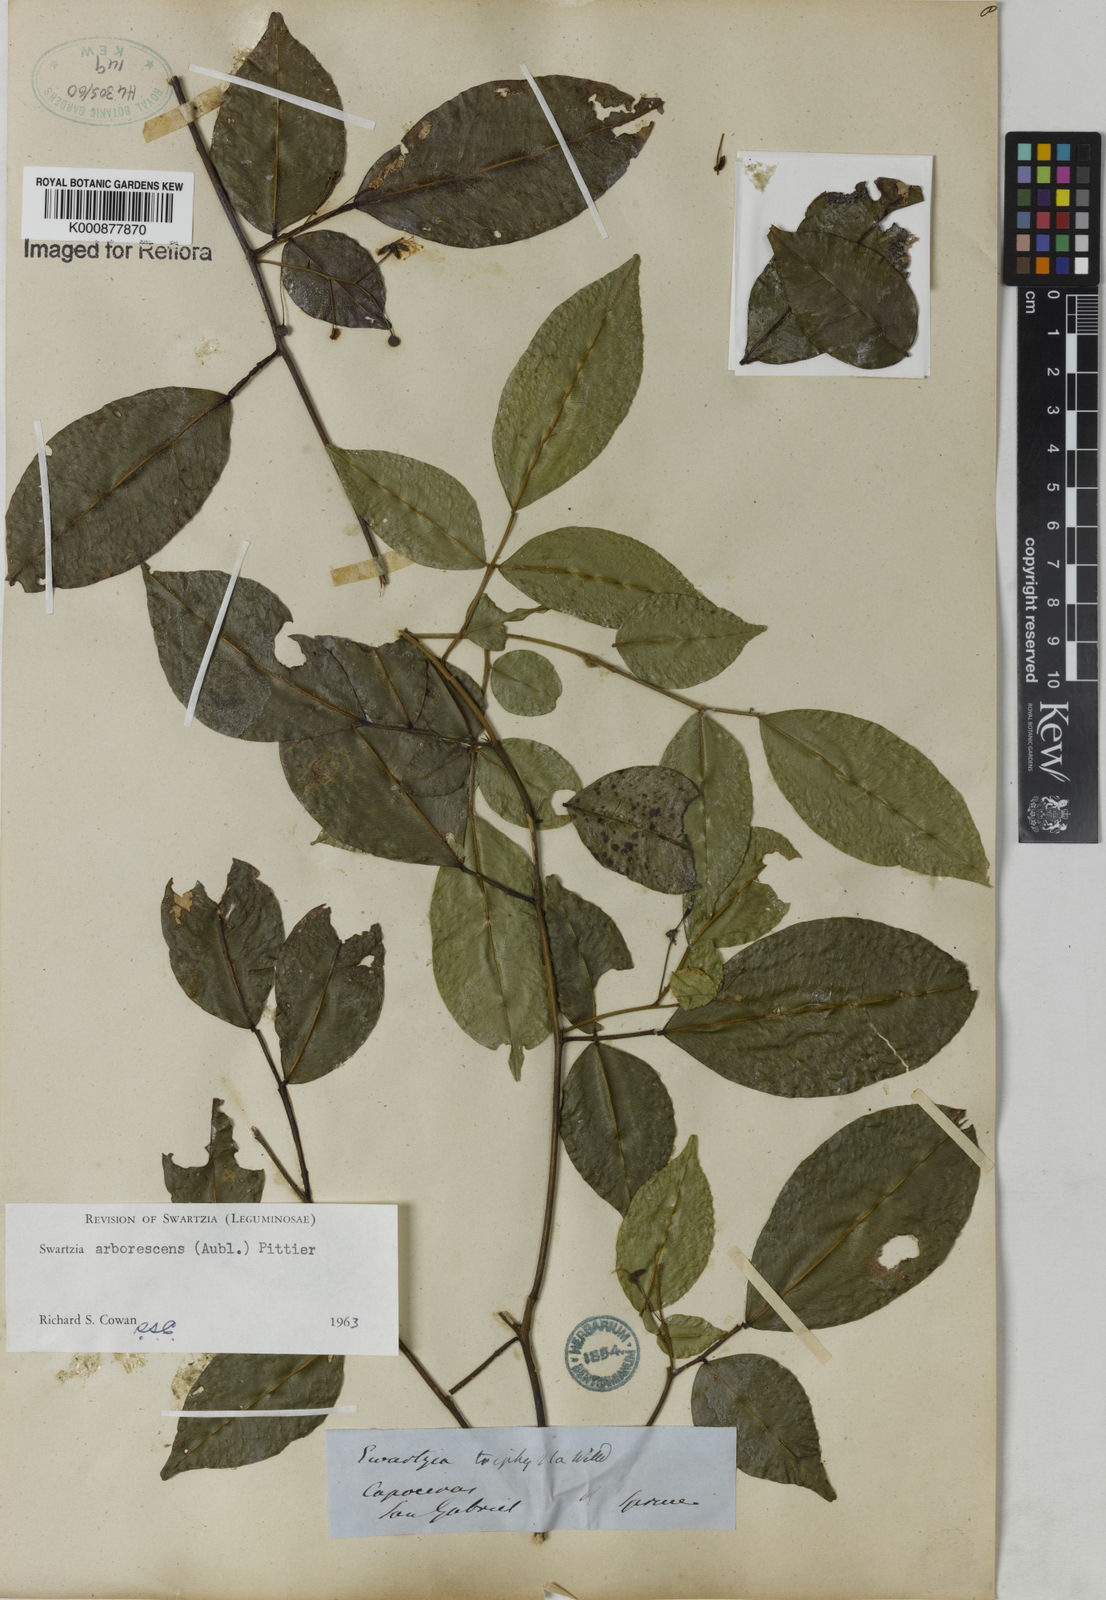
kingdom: Plantae
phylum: Tracheophyta
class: Magnoliopsida
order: Fabales
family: Fabaceae
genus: Swartzia
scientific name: Swartzia arborescens
